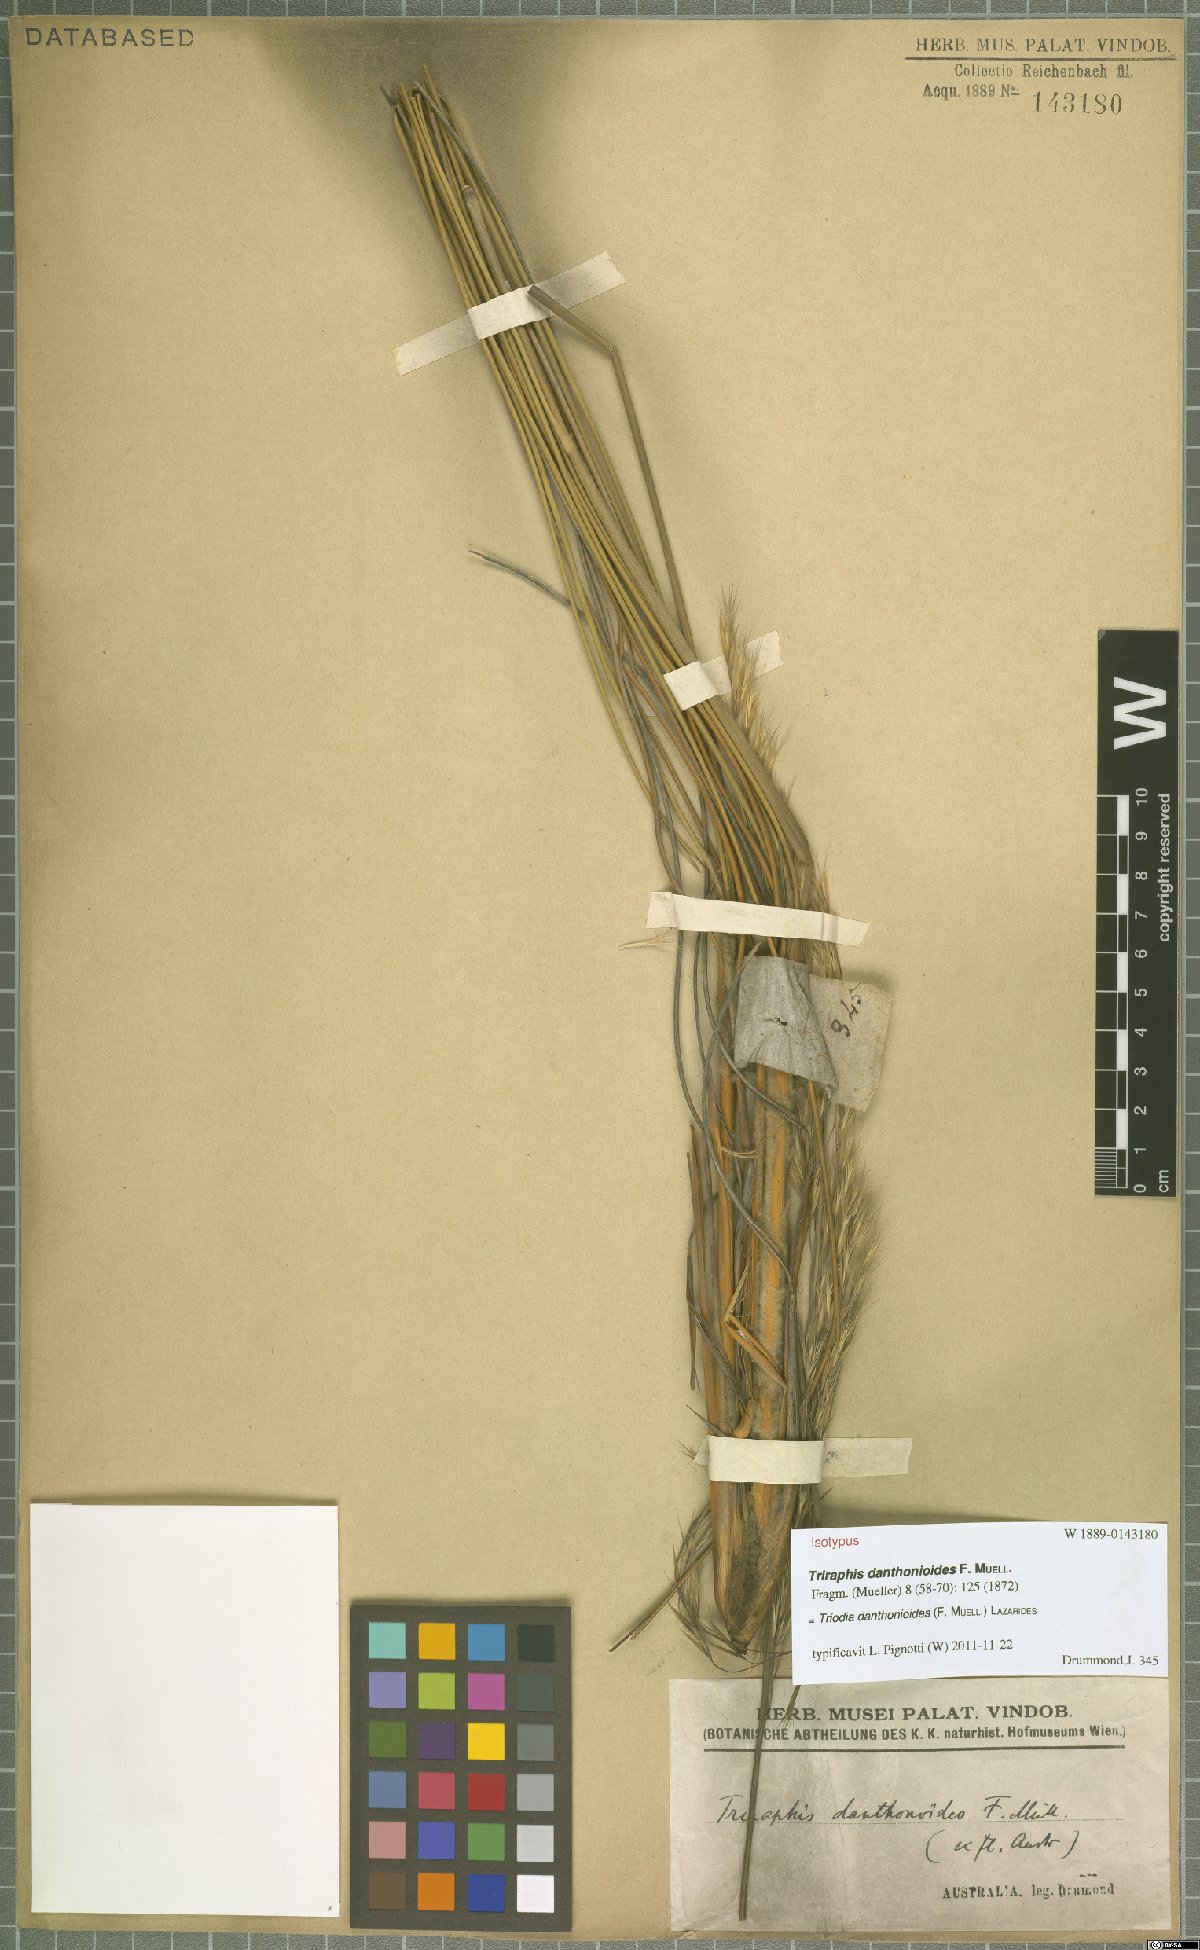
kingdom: Plantae
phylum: Tracheophyta
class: Liliopsida
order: Poales
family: Poaceae
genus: Triodia
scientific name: Triodia danthonioides
